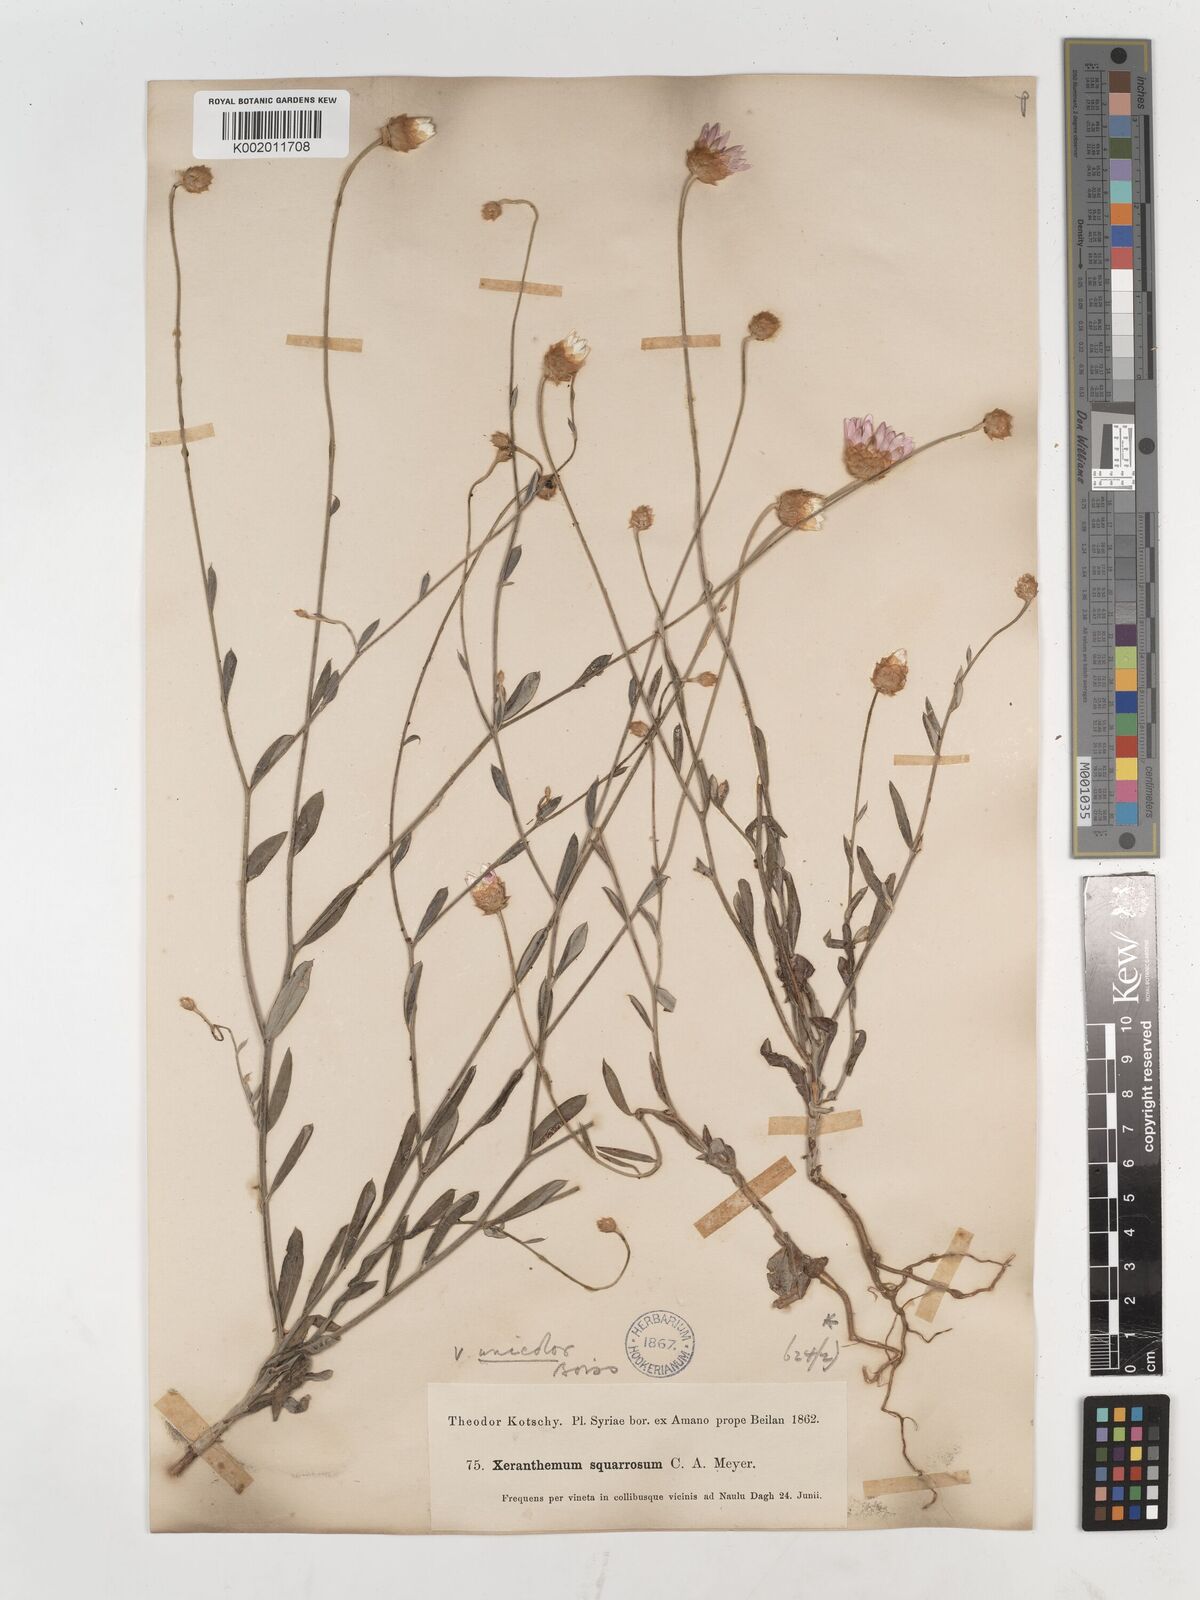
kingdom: Plantae
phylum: Tracheophyta
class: Magnoliopsida
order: Asterales
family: Asteraceae
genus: Xeranthemum
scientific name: Xeranthemum squarrosum
